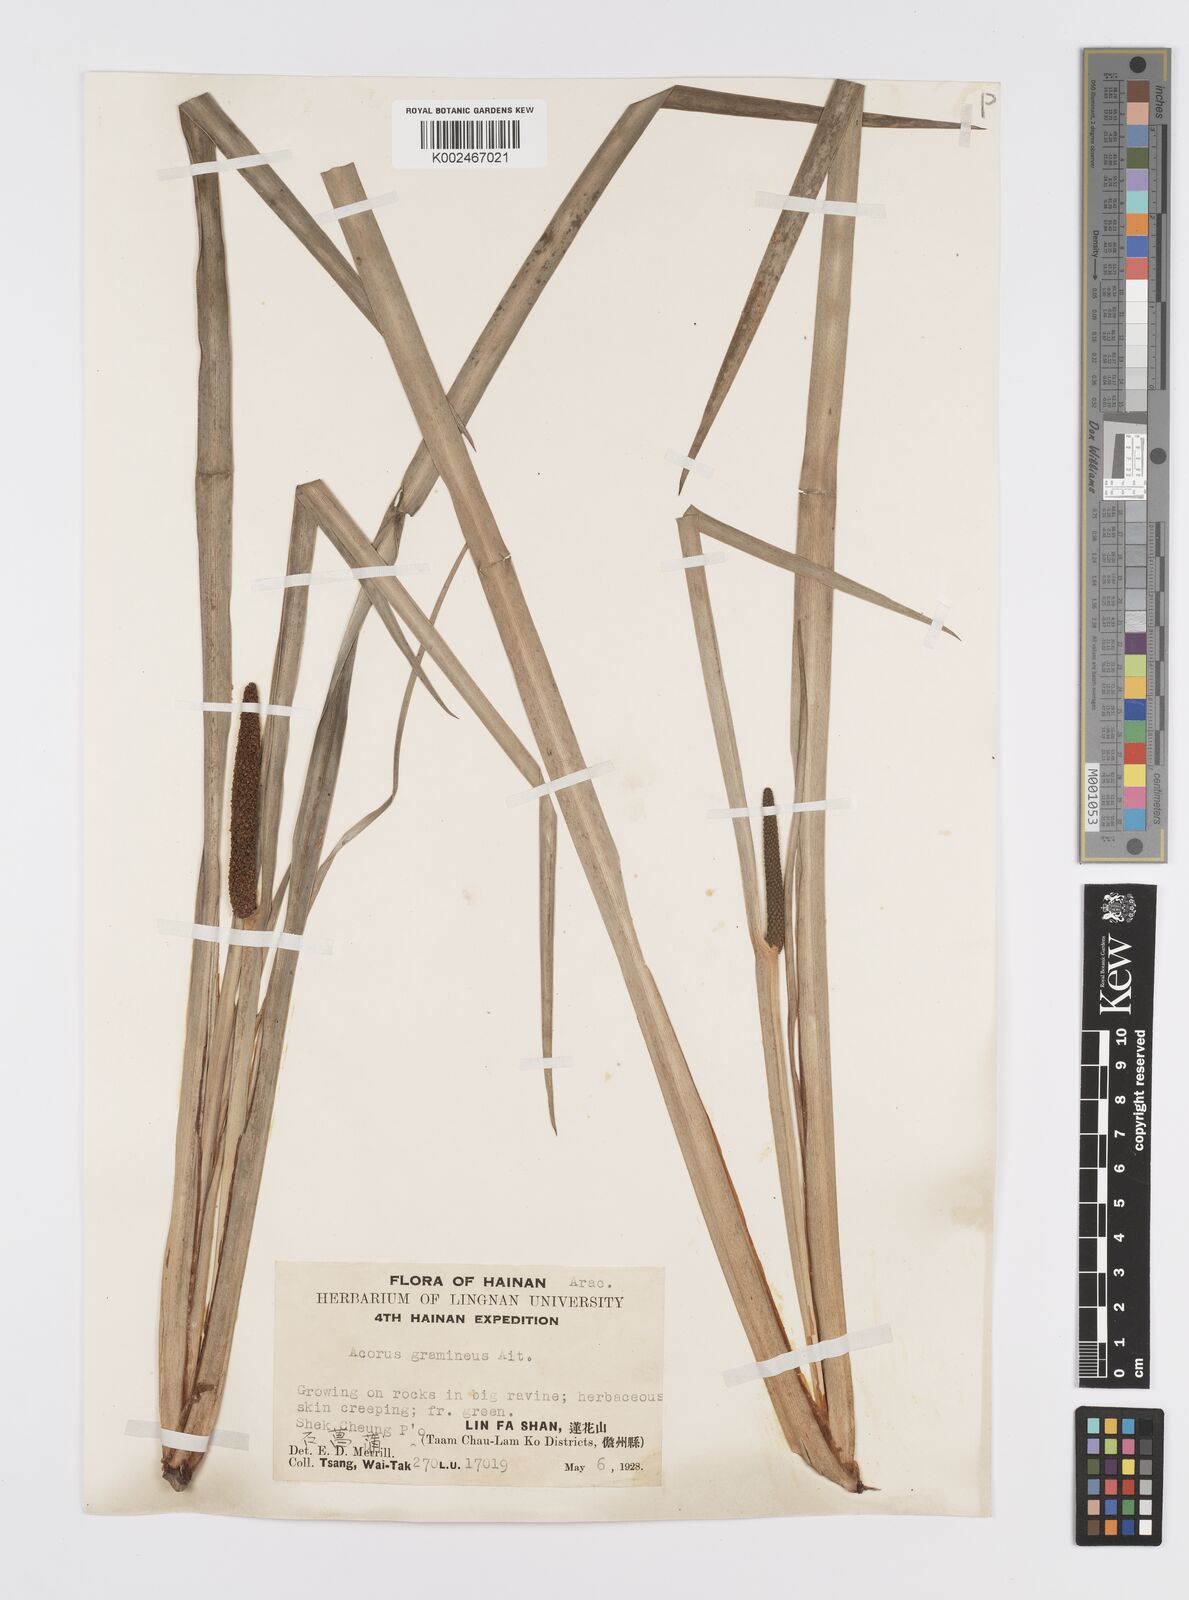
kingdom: Plantae
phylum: Tracheophyta
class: Liliopsida
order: Acorales
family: Acoraceae
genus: Acorus
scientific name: Acorus gramineus
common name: Slender sweet-flag
